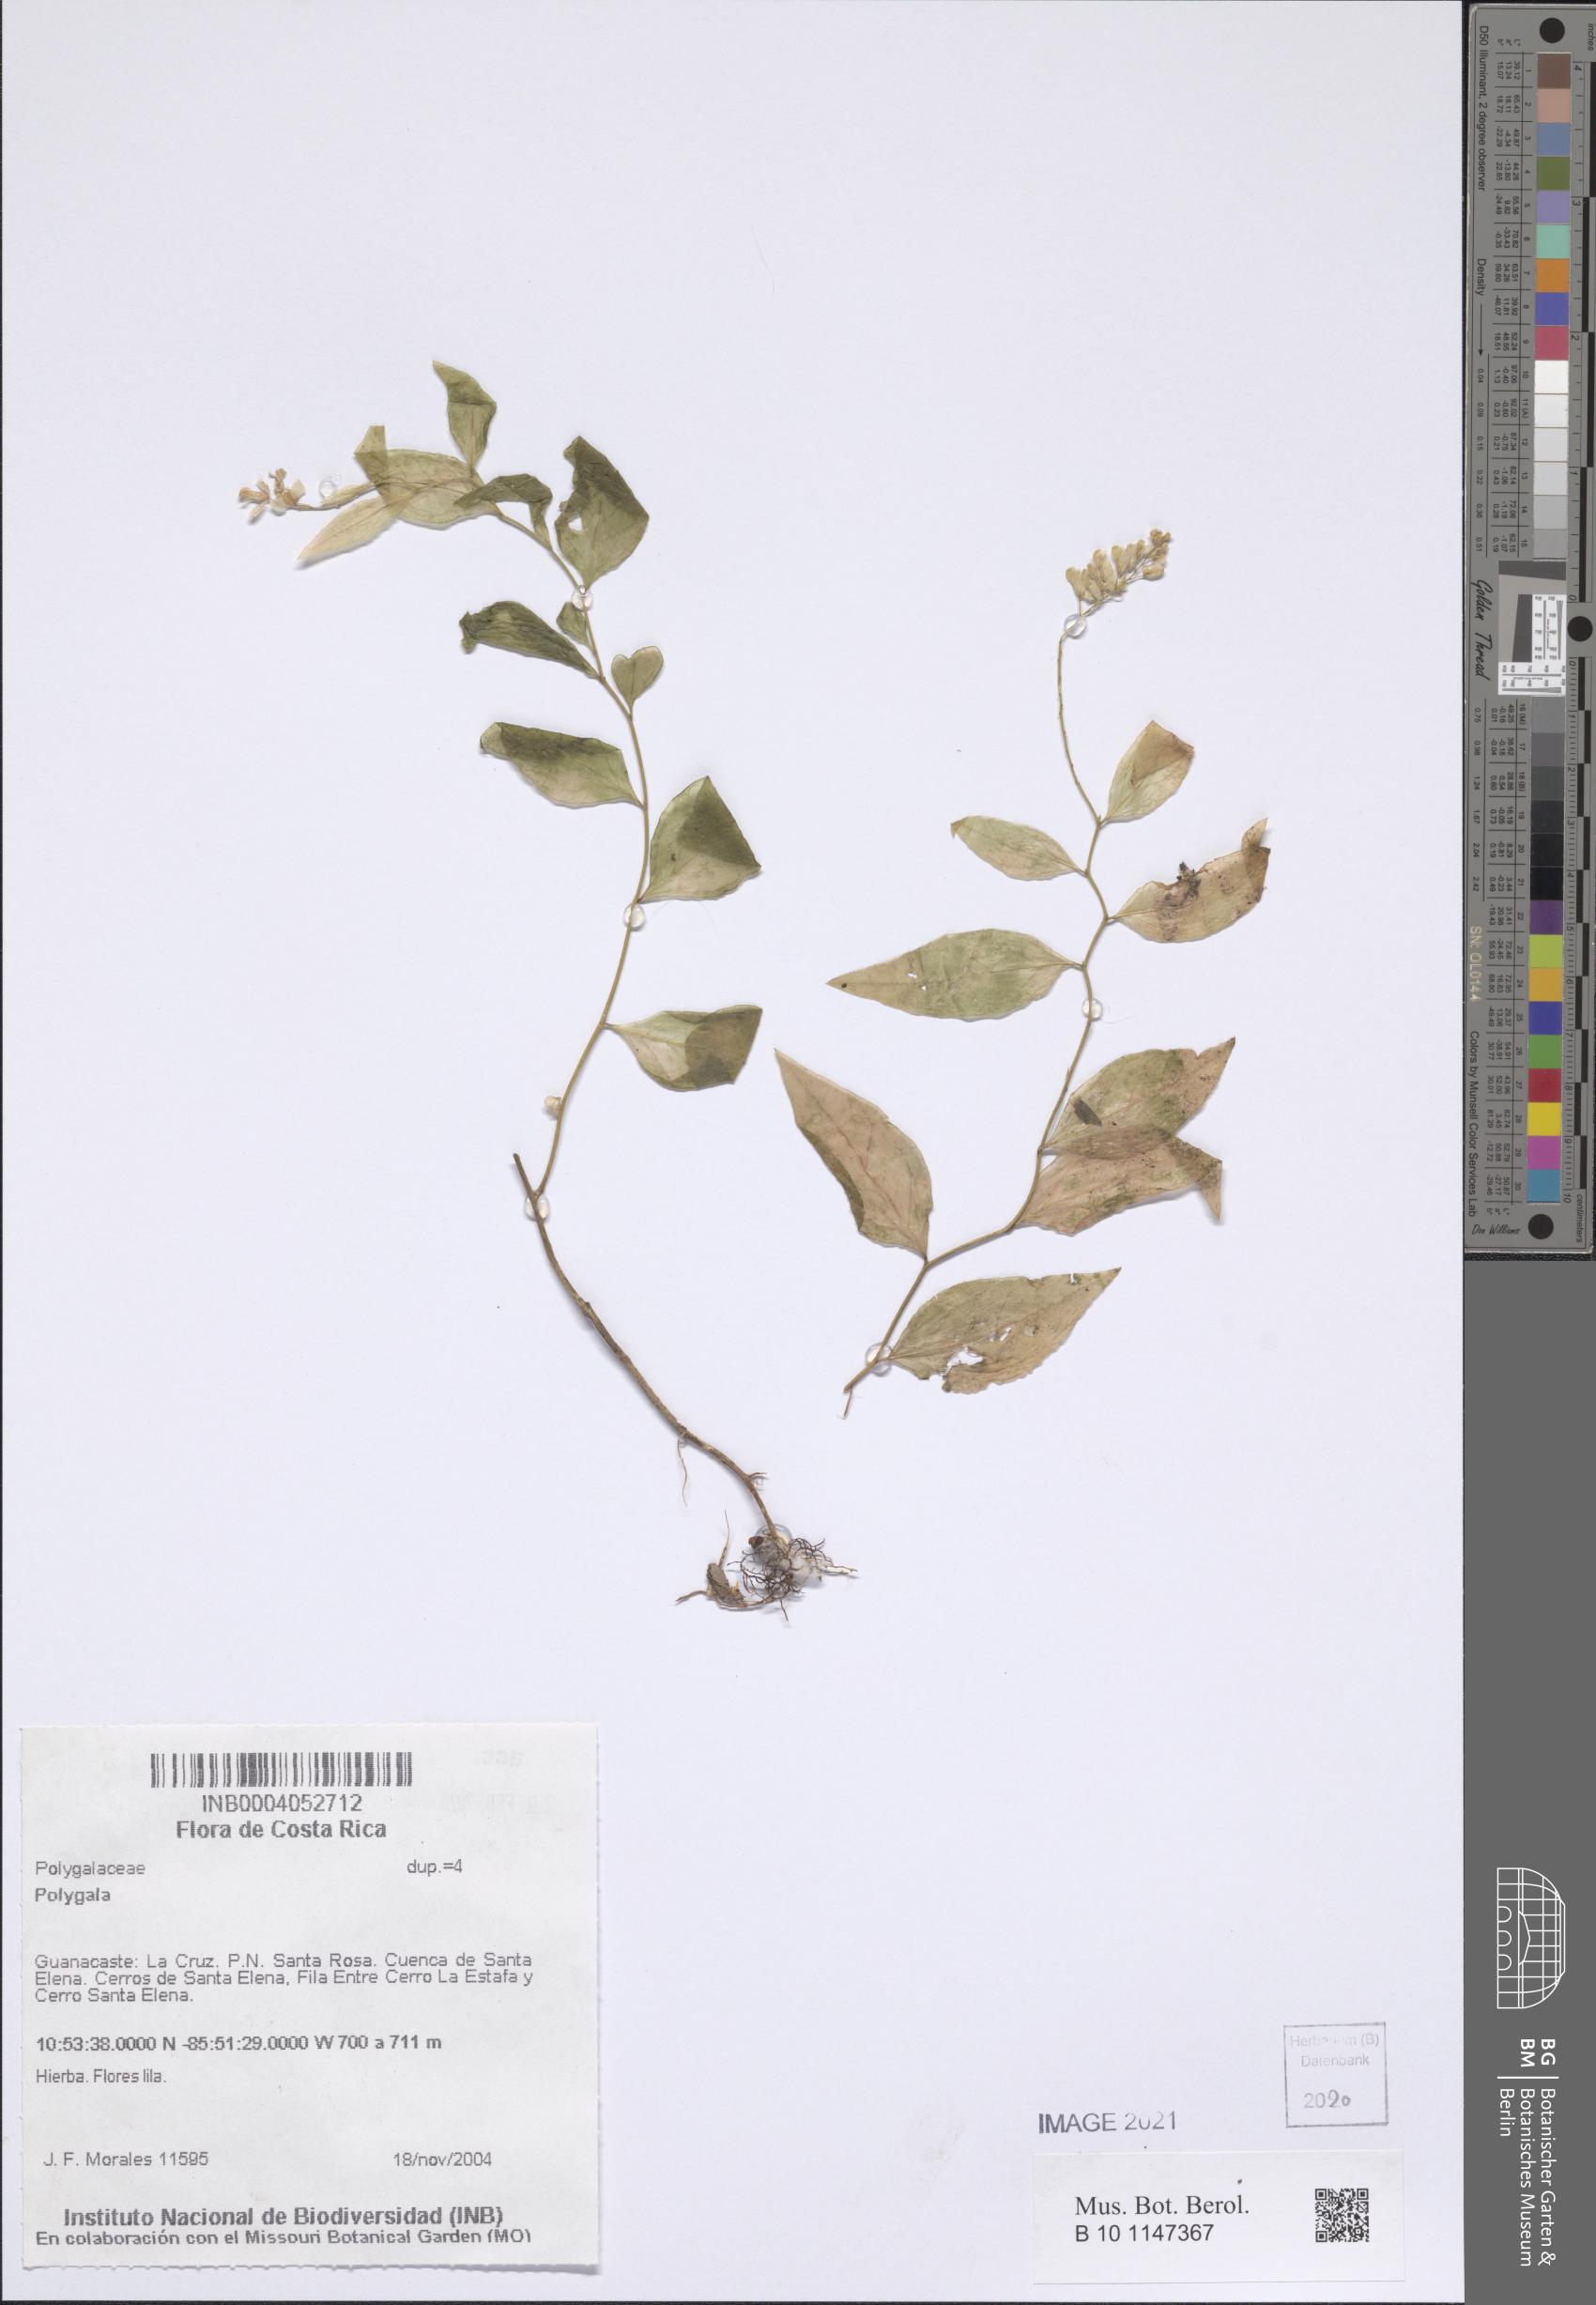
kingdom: Plantae
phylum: Tracheophyta
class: Magnoliopsida
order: Fabales
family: Polygalaceae
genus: Polygala
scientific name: Polygala
